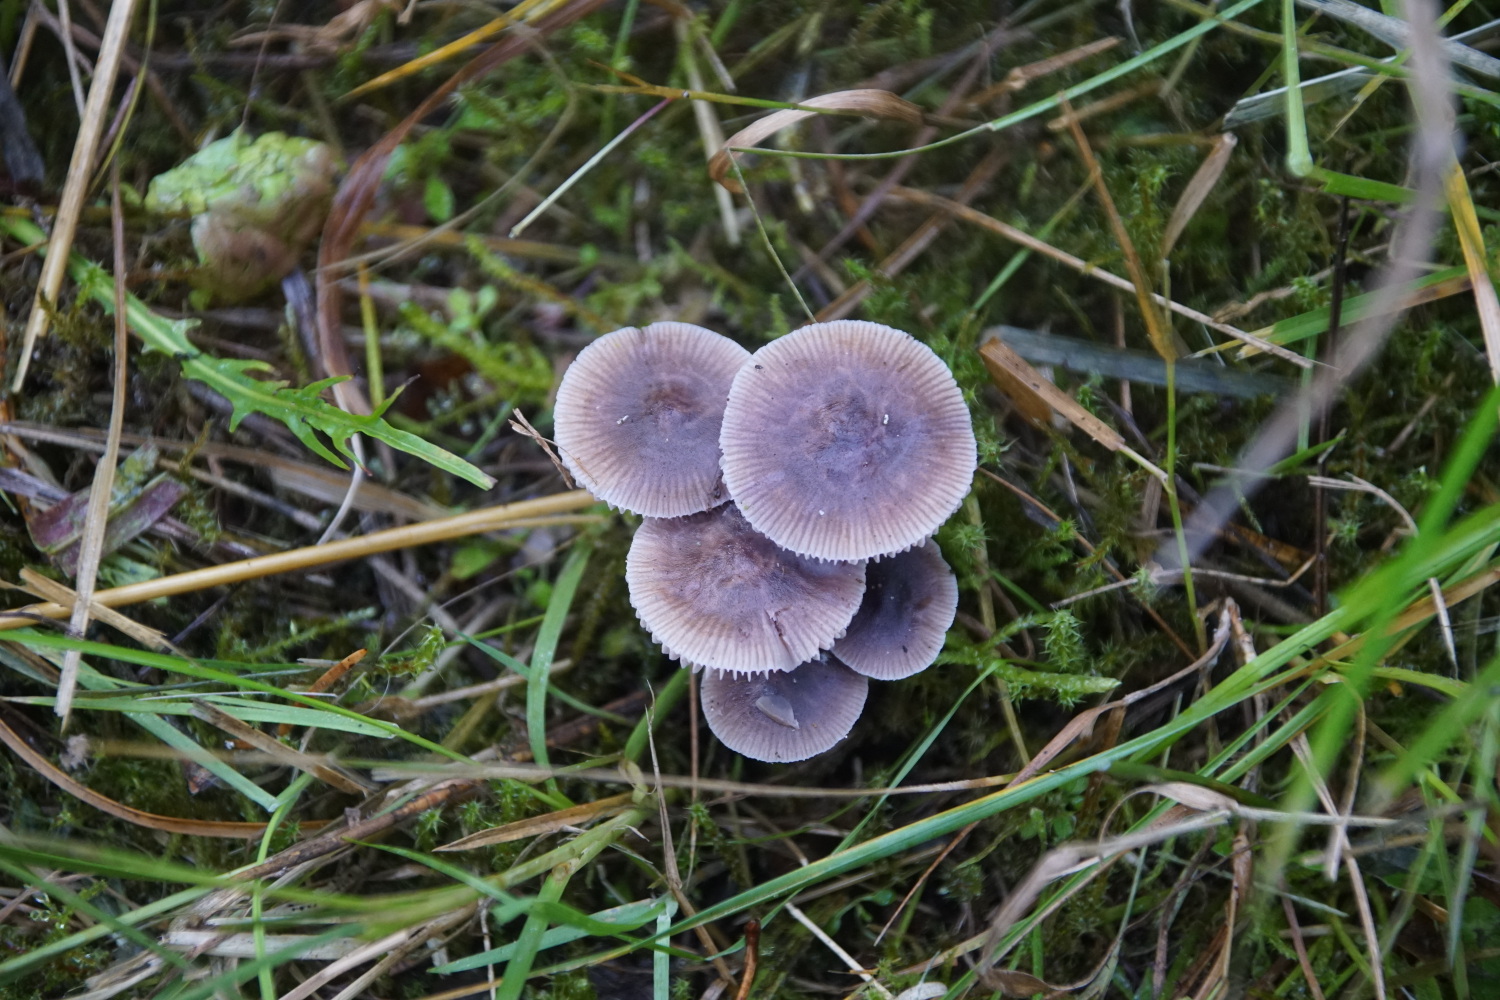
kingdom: Fungi
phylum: Basidiomycota
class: Agaricomycetes
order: Agaricales
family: Mycenaceae
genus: Mycena
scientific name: Mycena
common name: huesvamp
